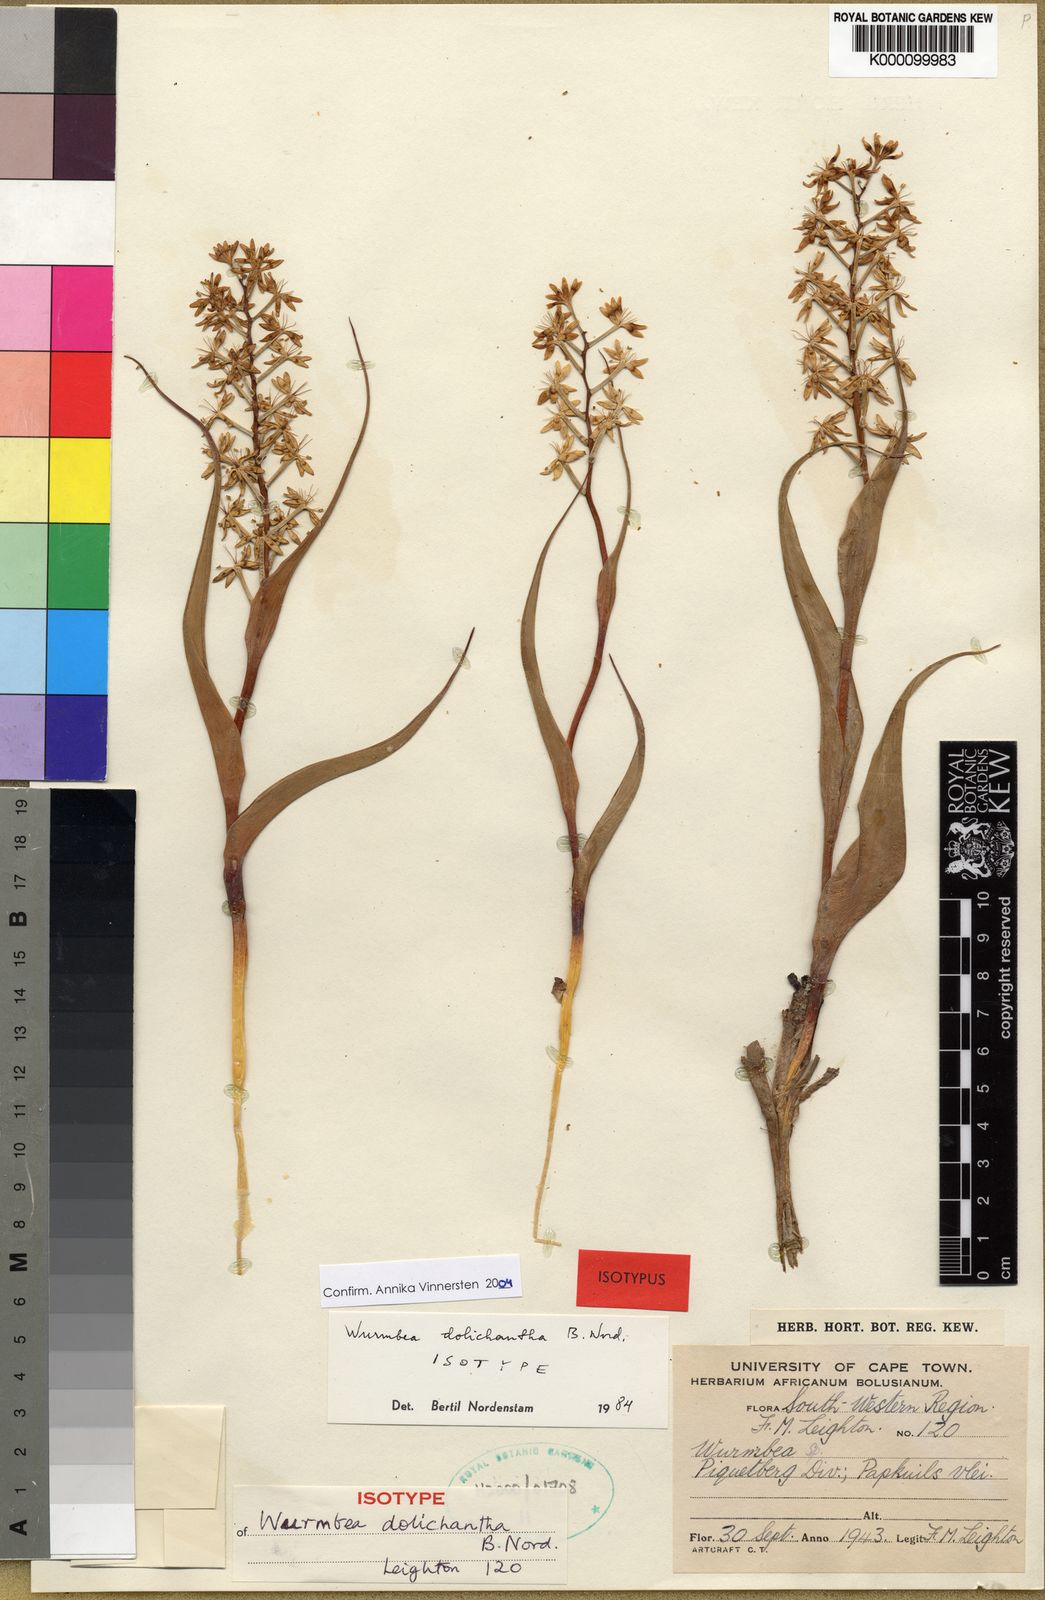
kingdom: Plantae
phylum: Tracheophyta
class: Liliopsida
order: Liliales
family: Colchicaceae
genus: Wurmbea
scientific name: Wurmbea dolichantha
